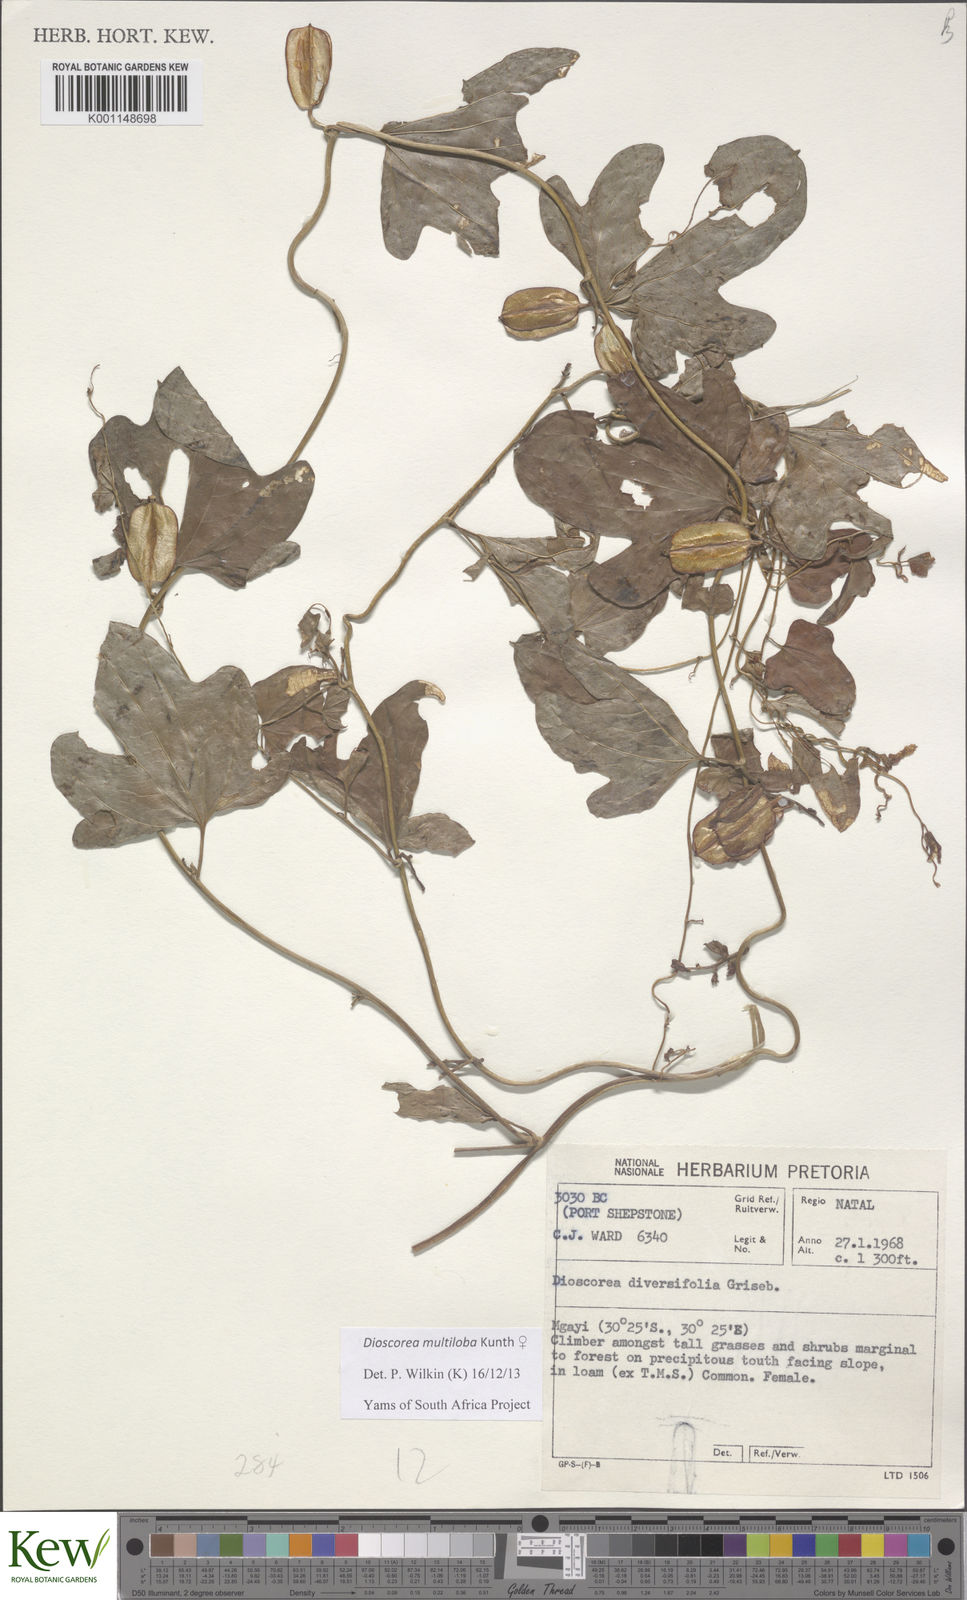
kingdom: Plantae
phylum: Tracheophyta
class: Liliopsida
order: Dioscoreales
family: Dioscoreaceae
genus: Dioscorea
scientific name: Dioscorea
